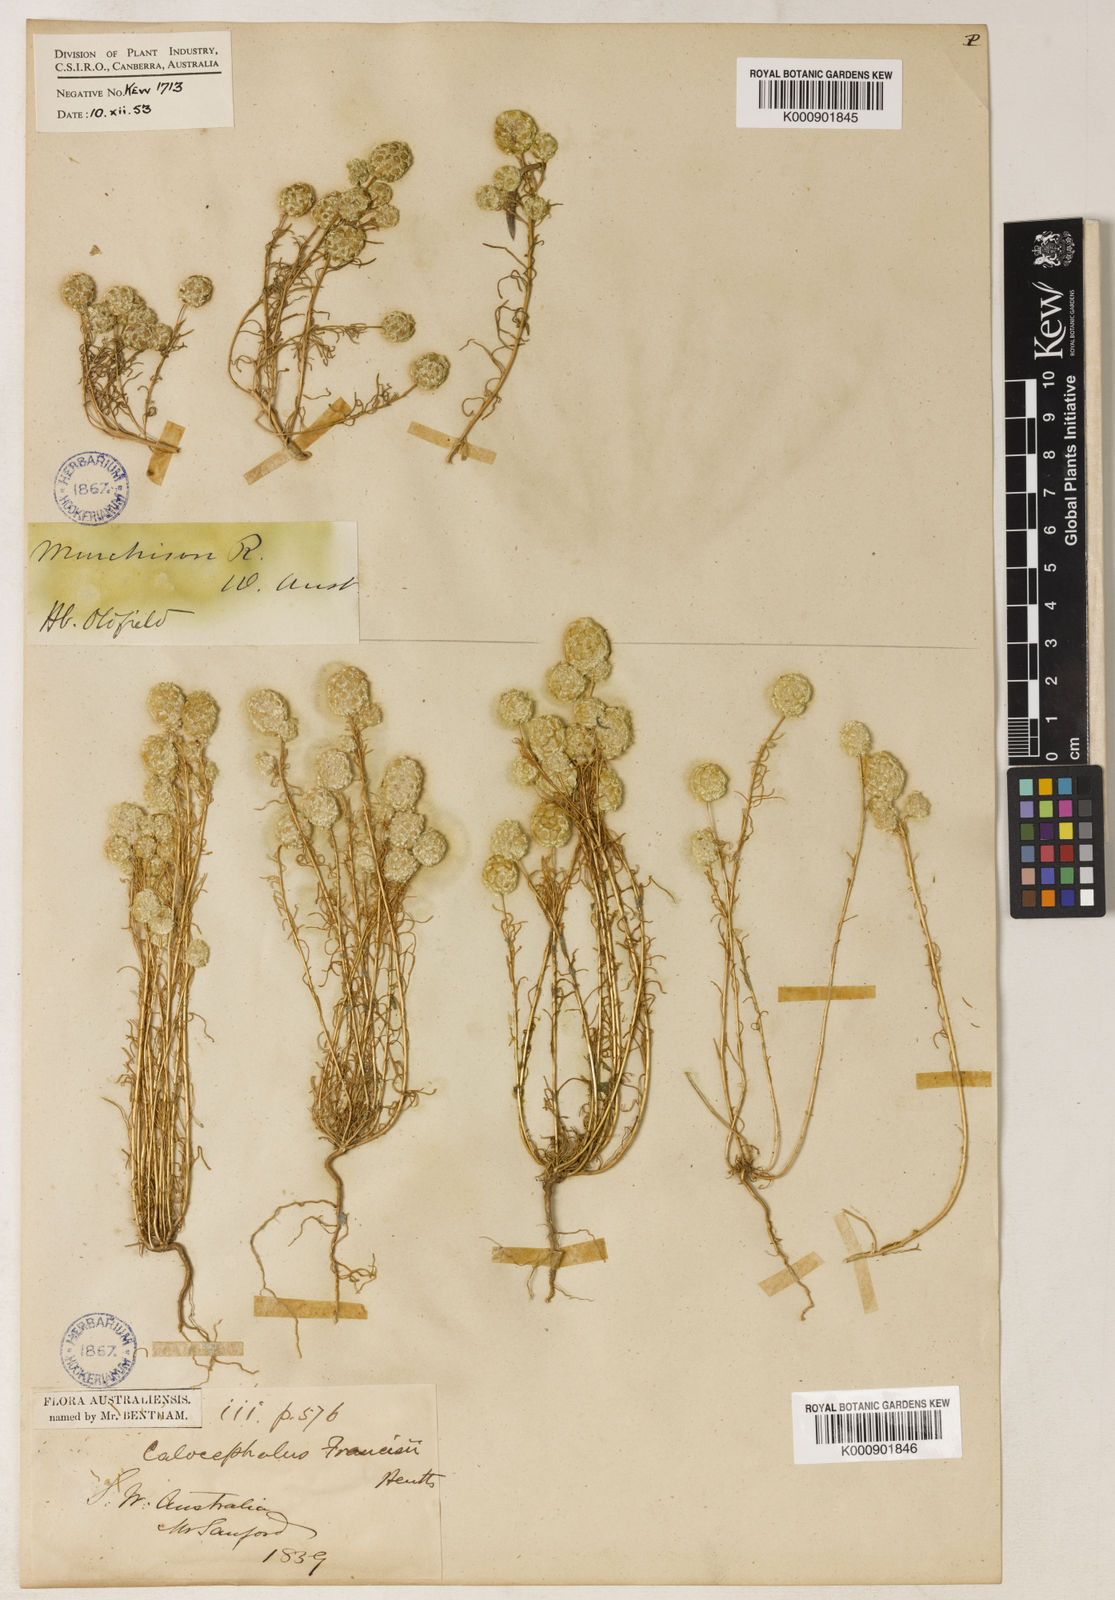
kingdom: Plantae
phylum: Tracheophyta
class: Magnoliopsida
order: Asterales
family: Asteraceae
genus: Calocephalus
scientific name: Calocephalus francisii
